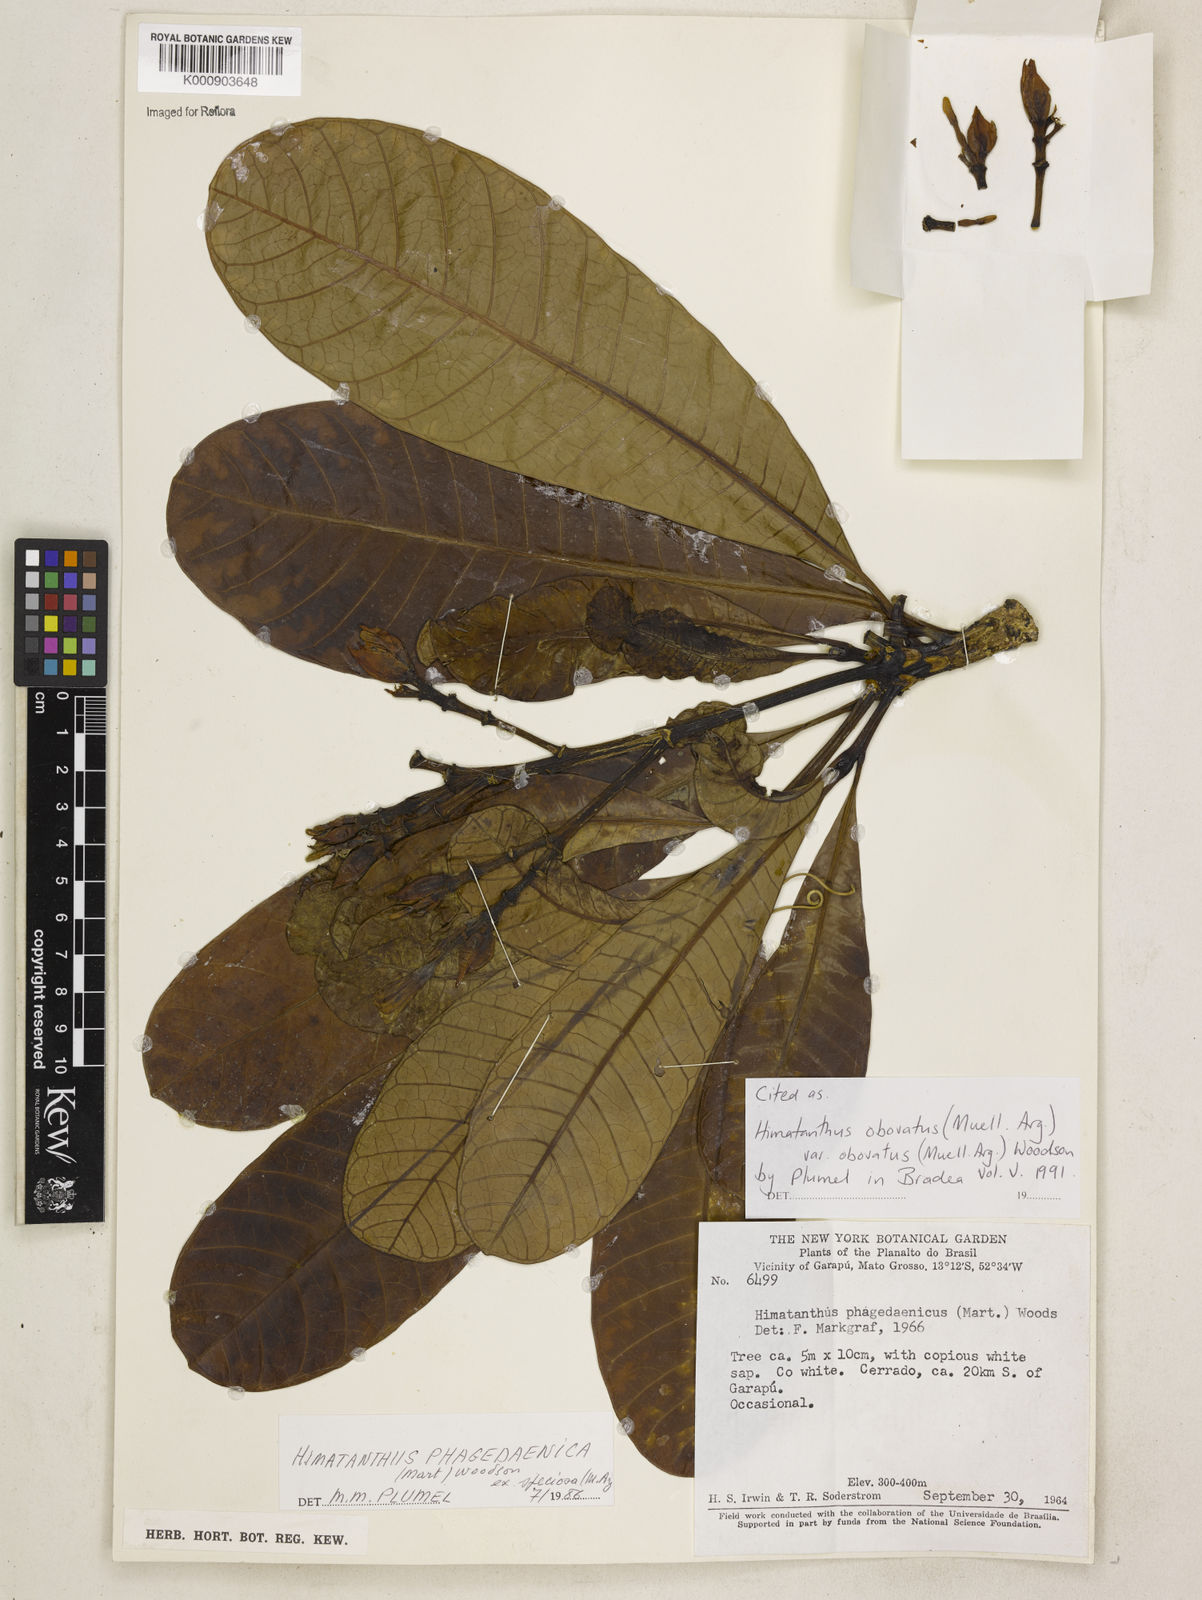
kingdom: Plantae
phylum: Tracheophyta
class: Magnoliopsida
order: Gentianales
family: Apocynaceae
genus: Himatanthus
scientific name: Himatanthus
